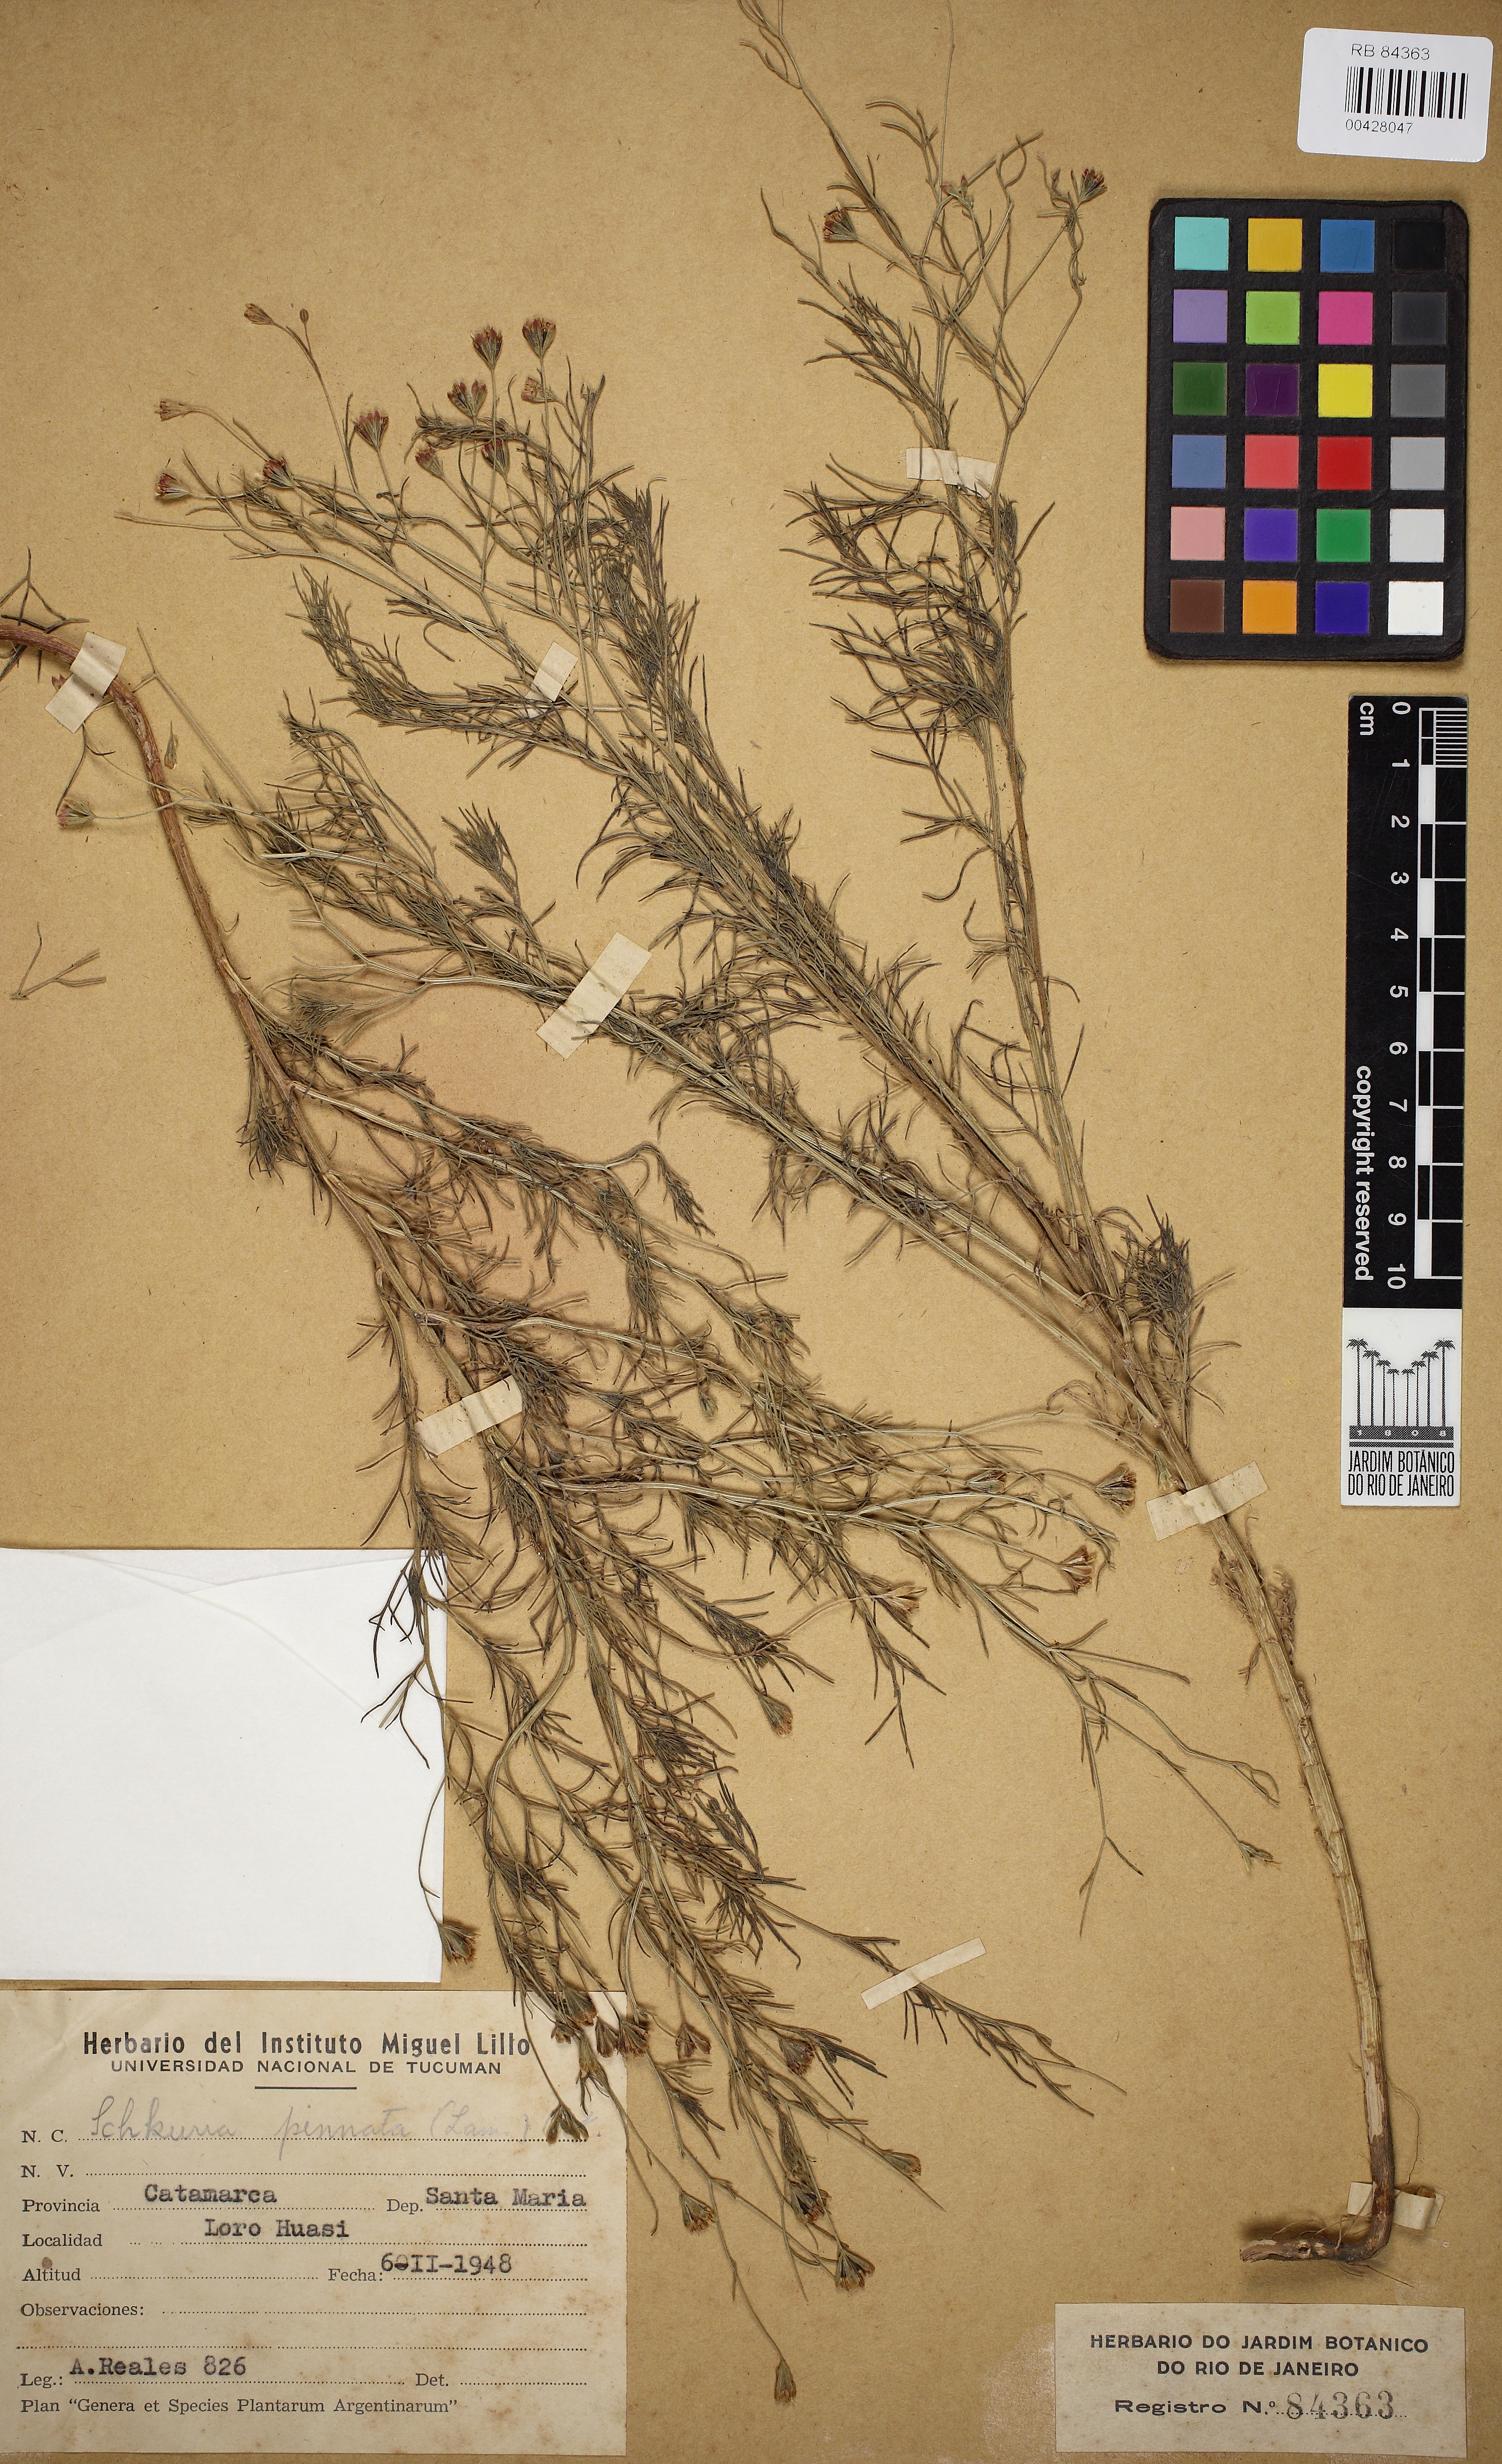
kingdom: Plantae
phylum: Tracheophyta
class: Magnoliopsida
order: Asterales
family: Asteraceae
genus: Schkuhria
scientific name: Schkuhria pinnata
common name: Dwarf marigold
